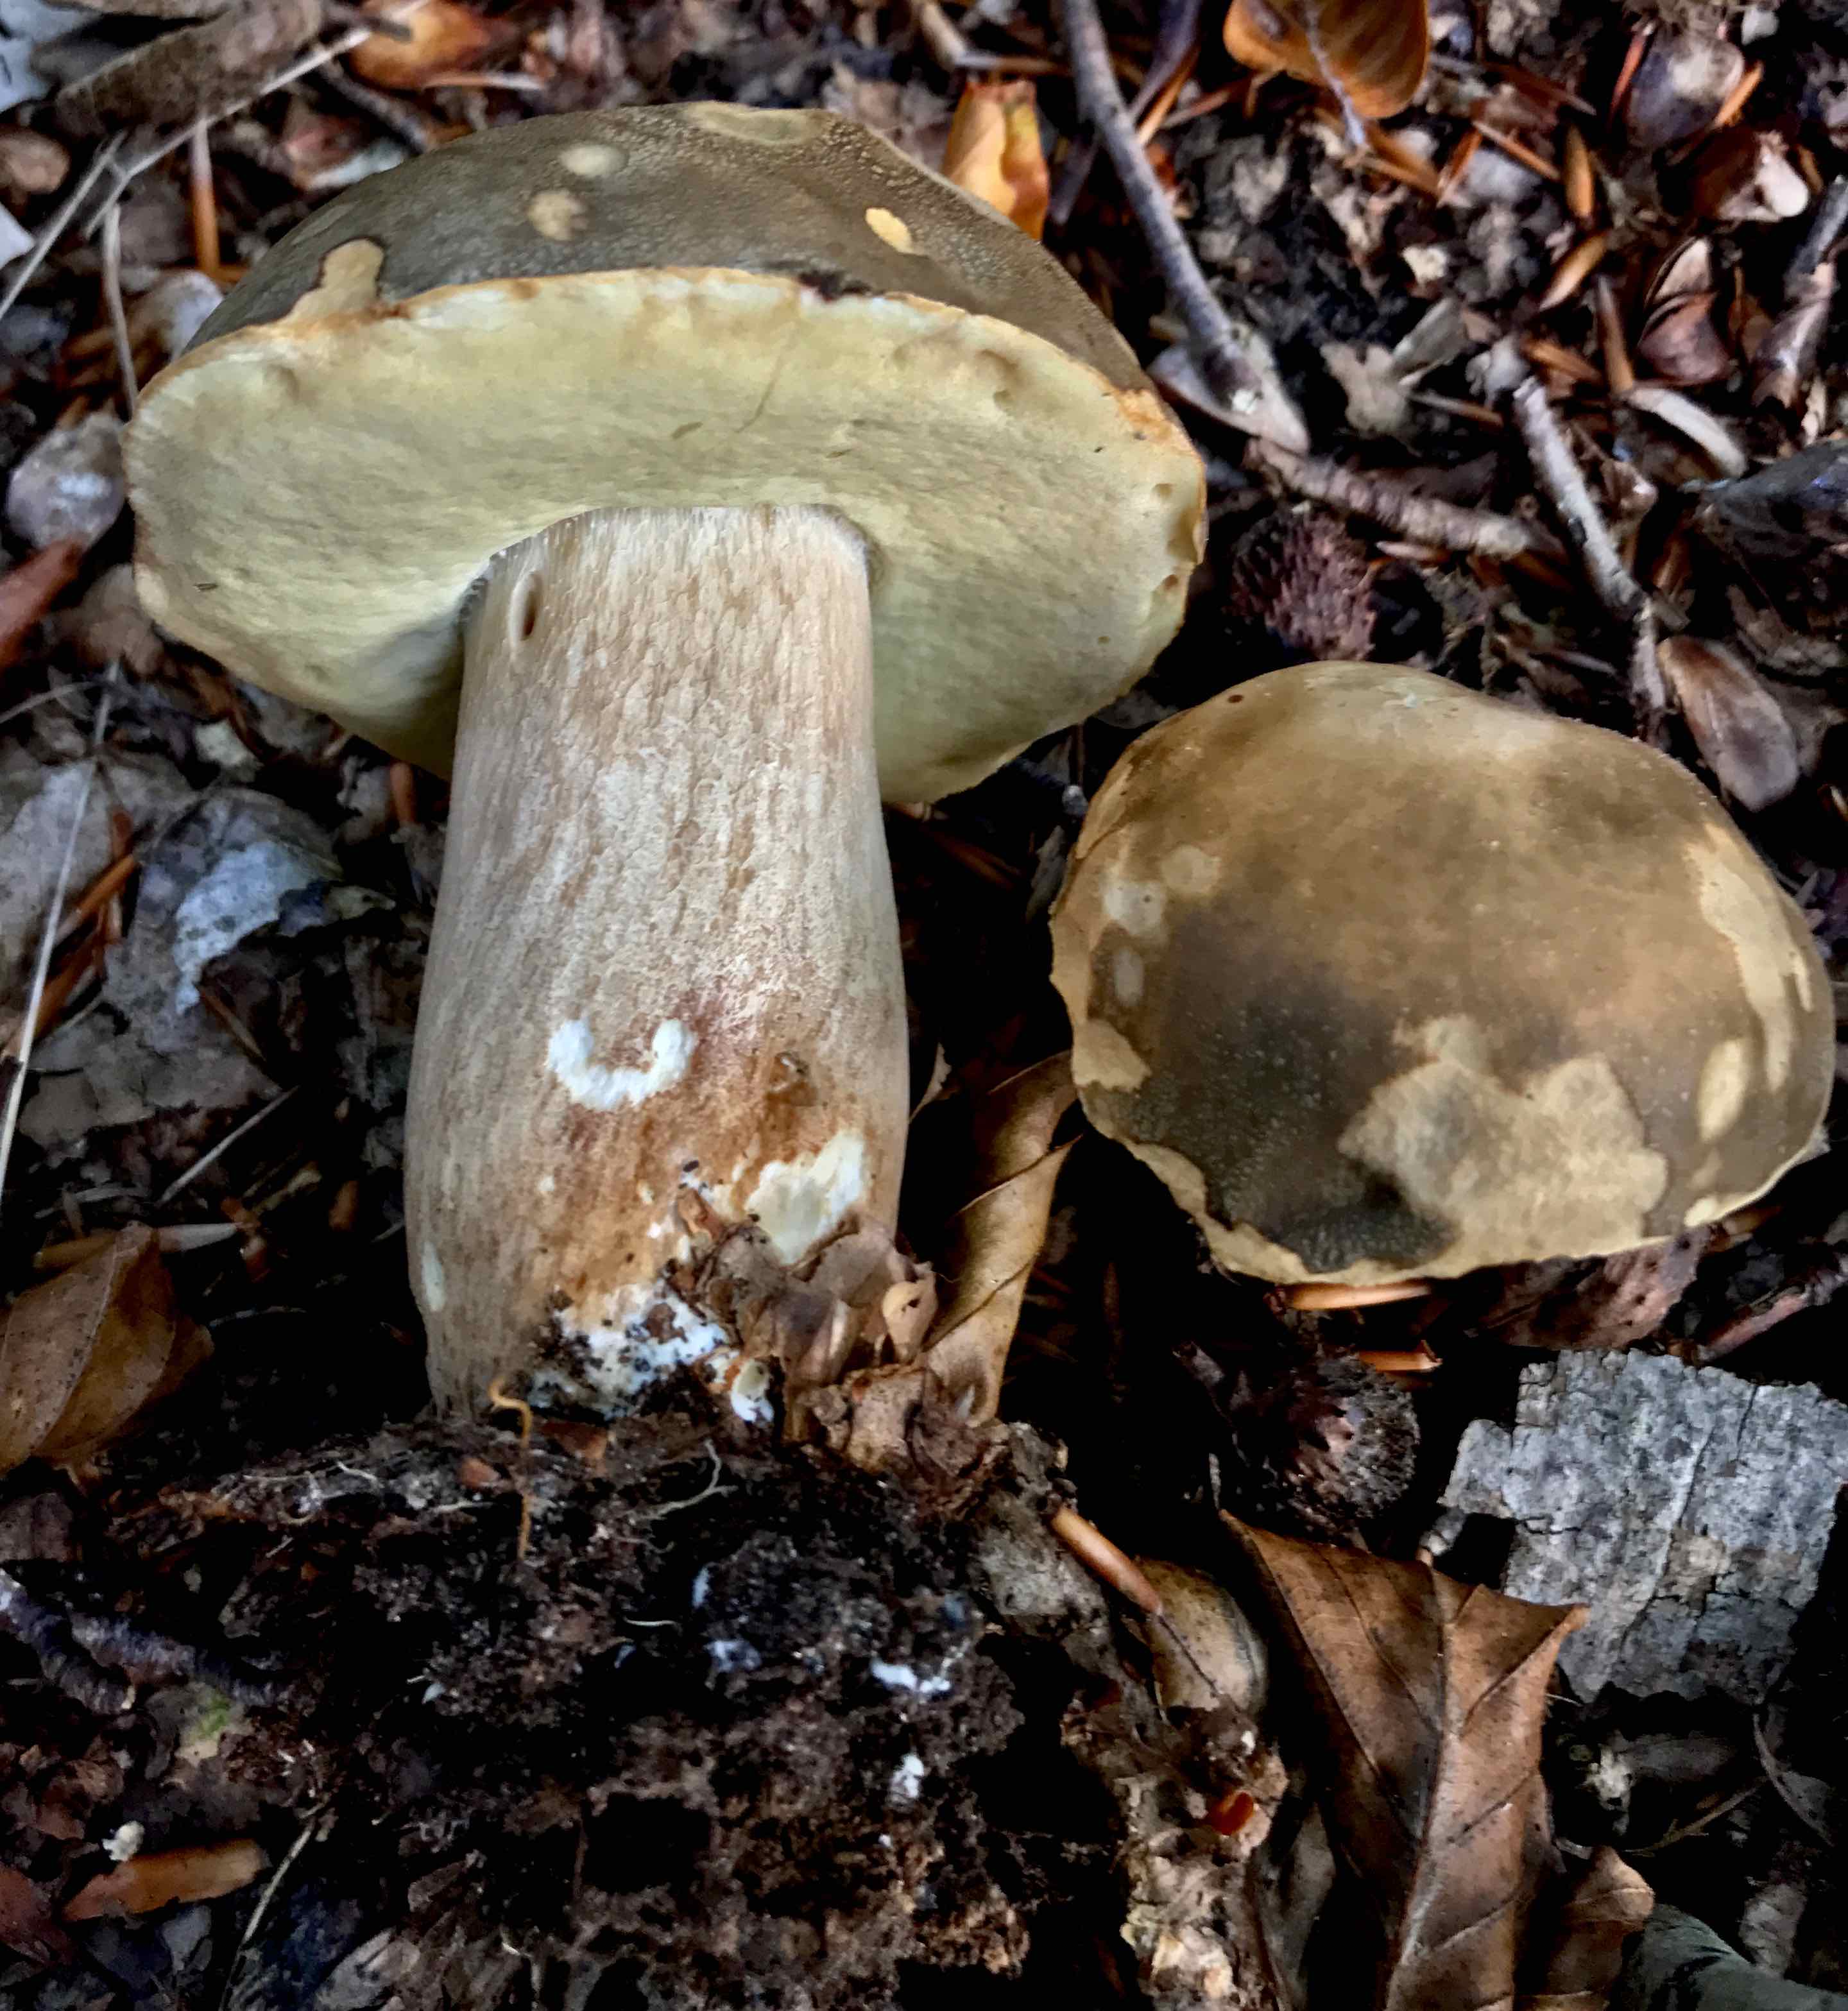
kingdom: Fungi
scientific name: Fungi
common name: bronze-rørhat
